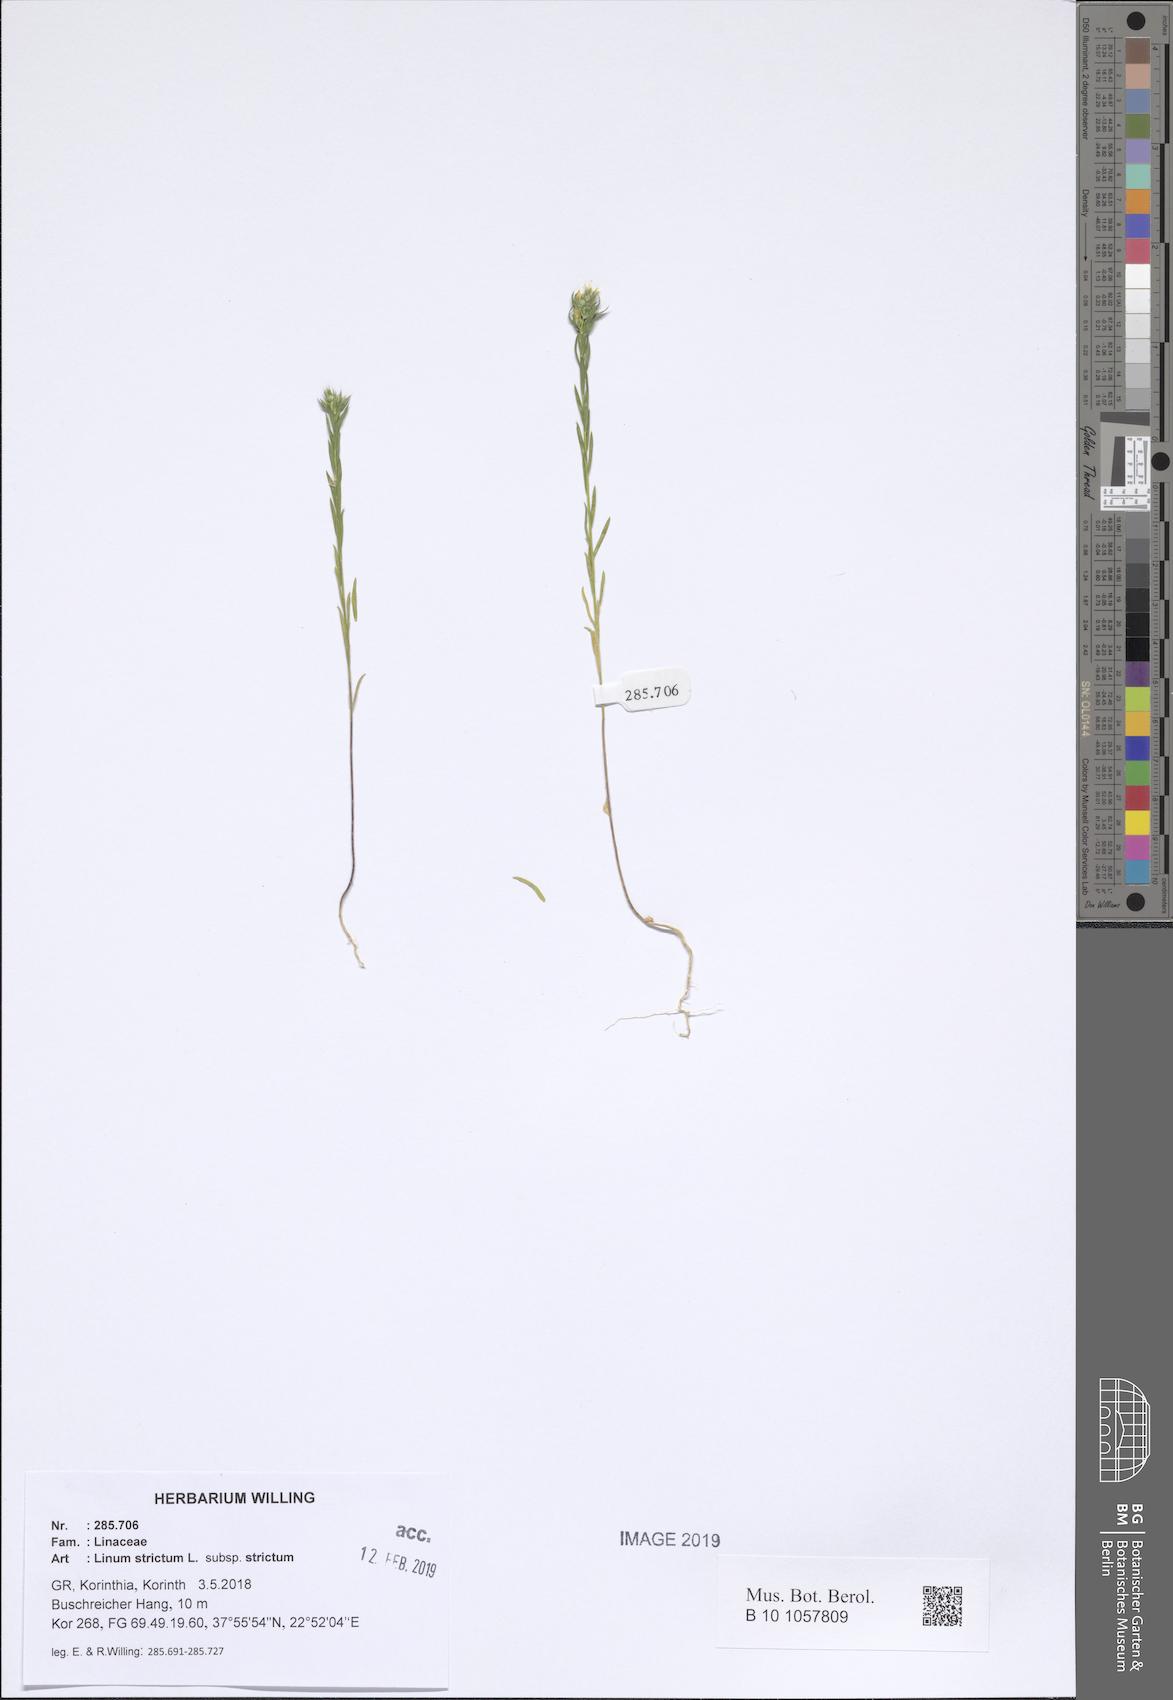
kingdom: Plantae
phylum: Tracheophyta
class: Magnoliopsida
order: Malpighiales
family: Linaceae
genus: Linum
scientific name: Linum strictum
